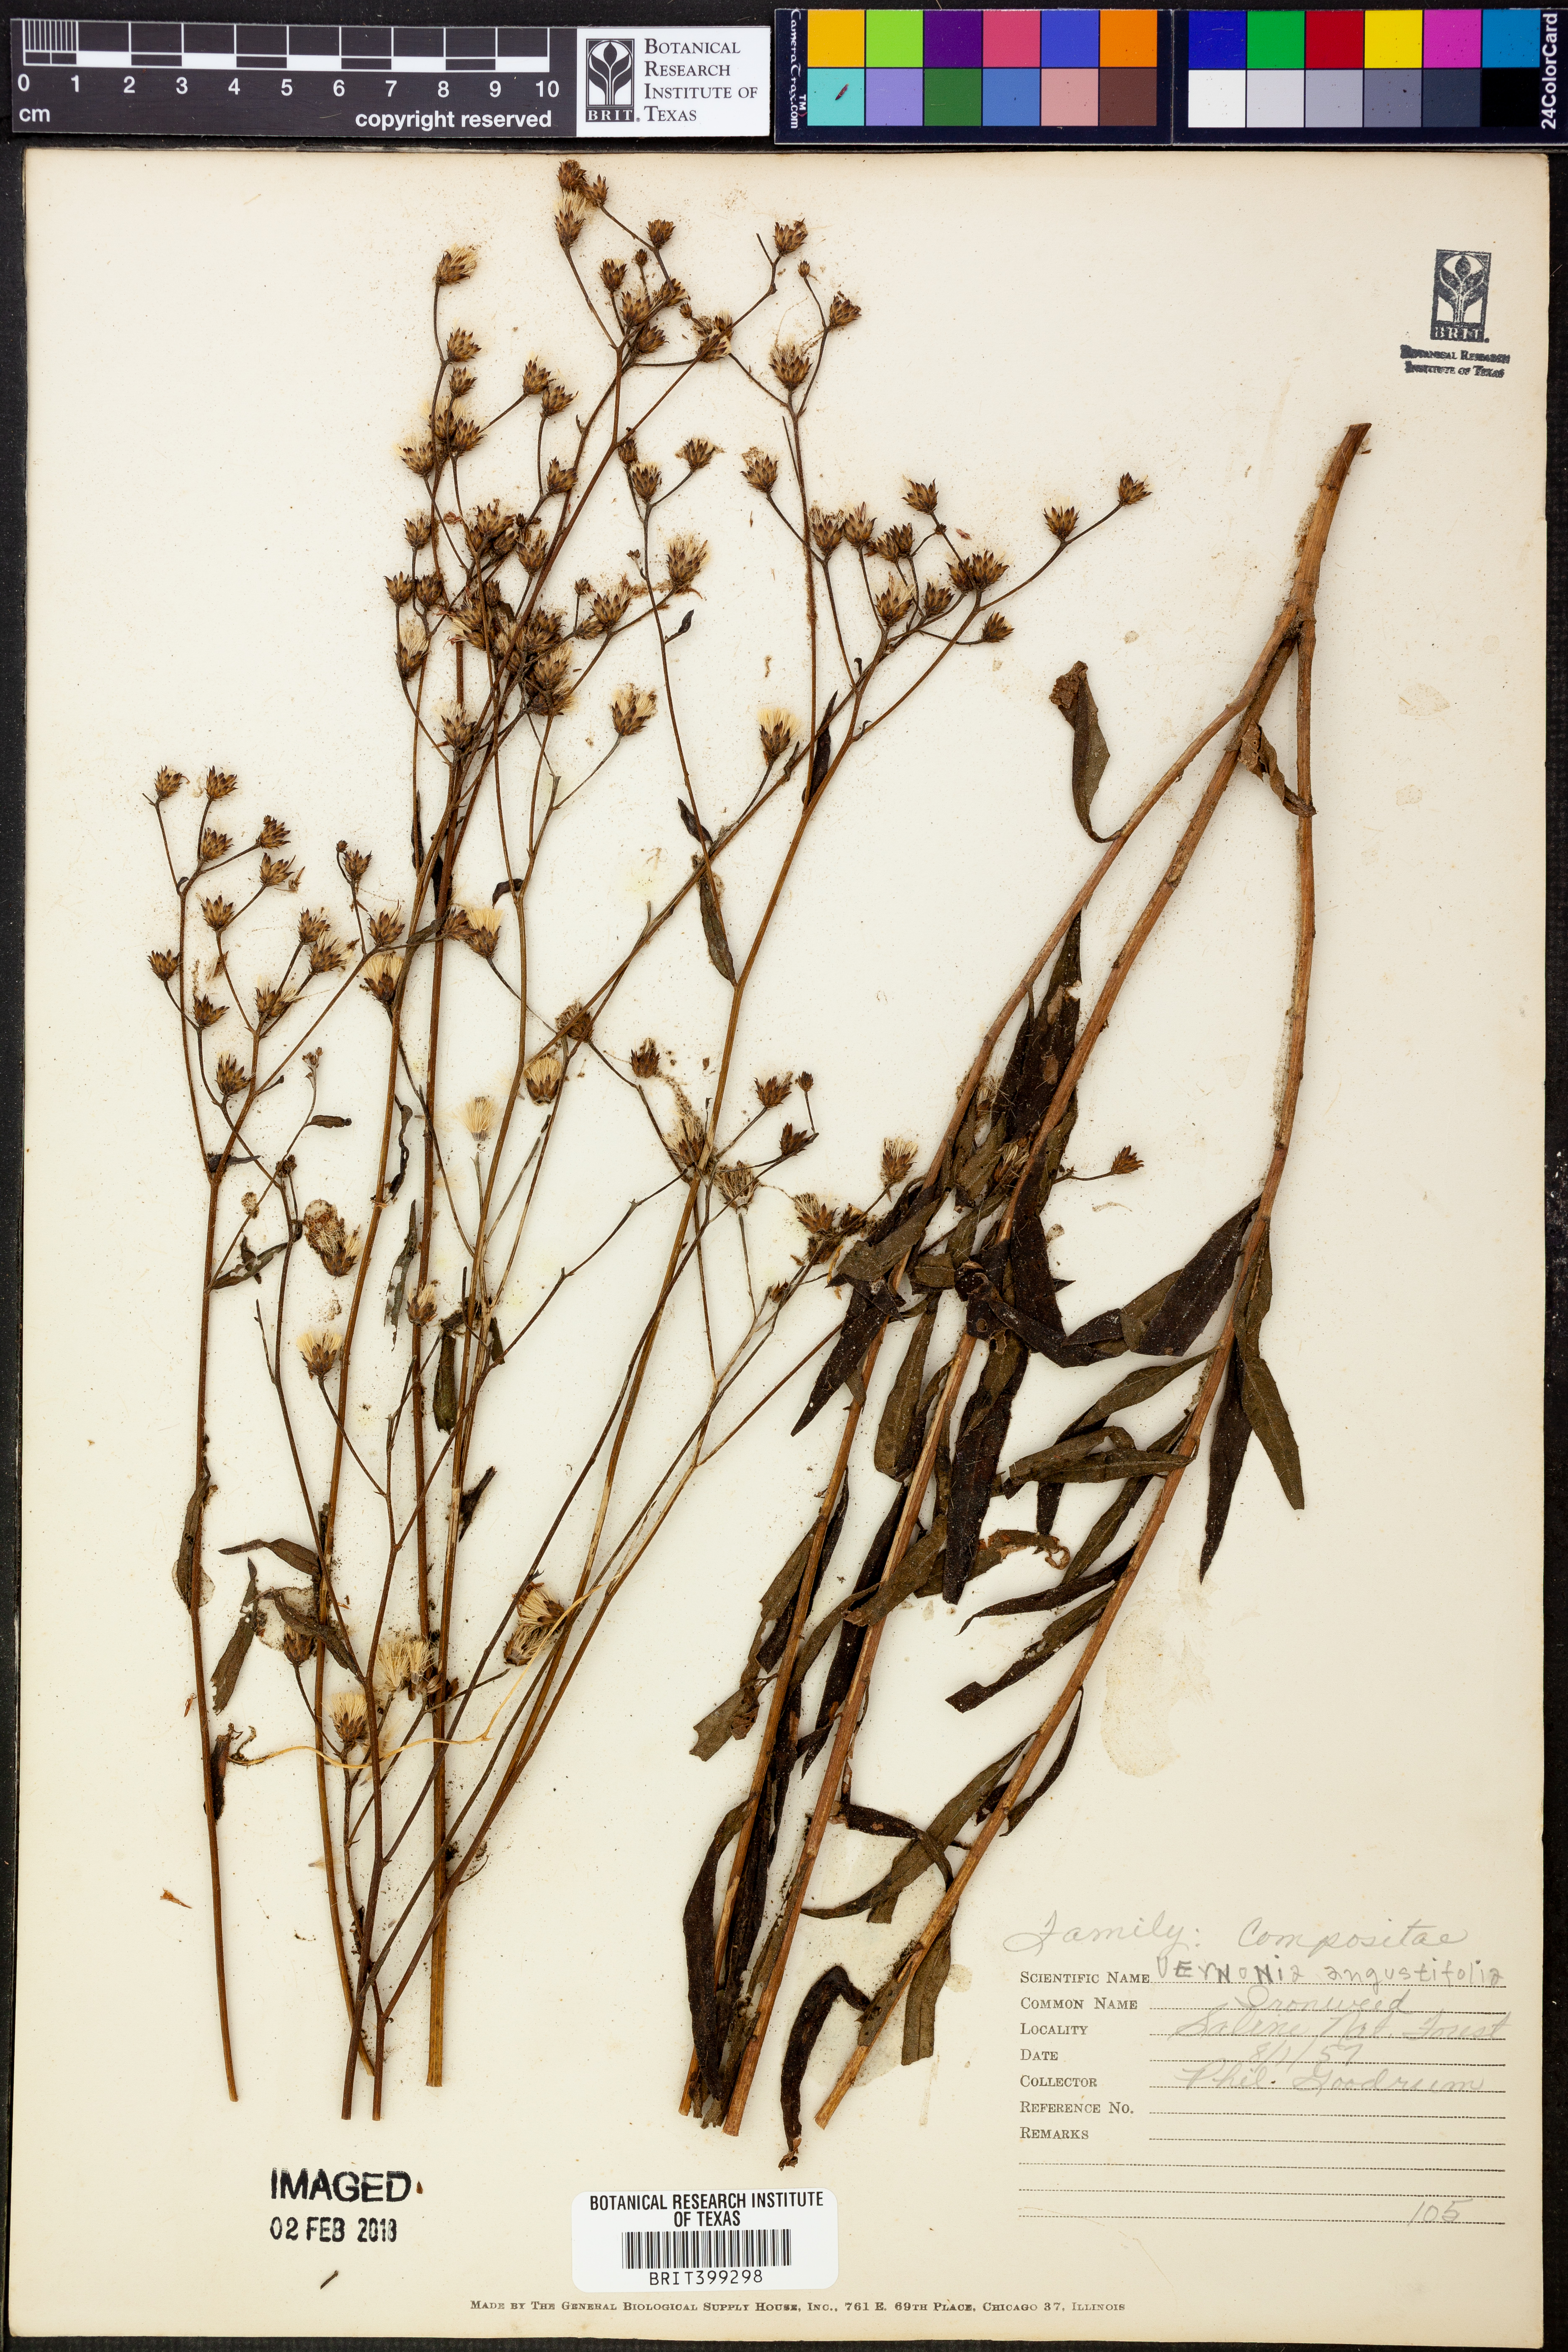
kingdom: Plantae
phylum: Tracheophyta
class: Magnoliopsida
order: Asterales
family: Asteraceae
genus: Vernonia
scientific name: Vernonia angustifolia
